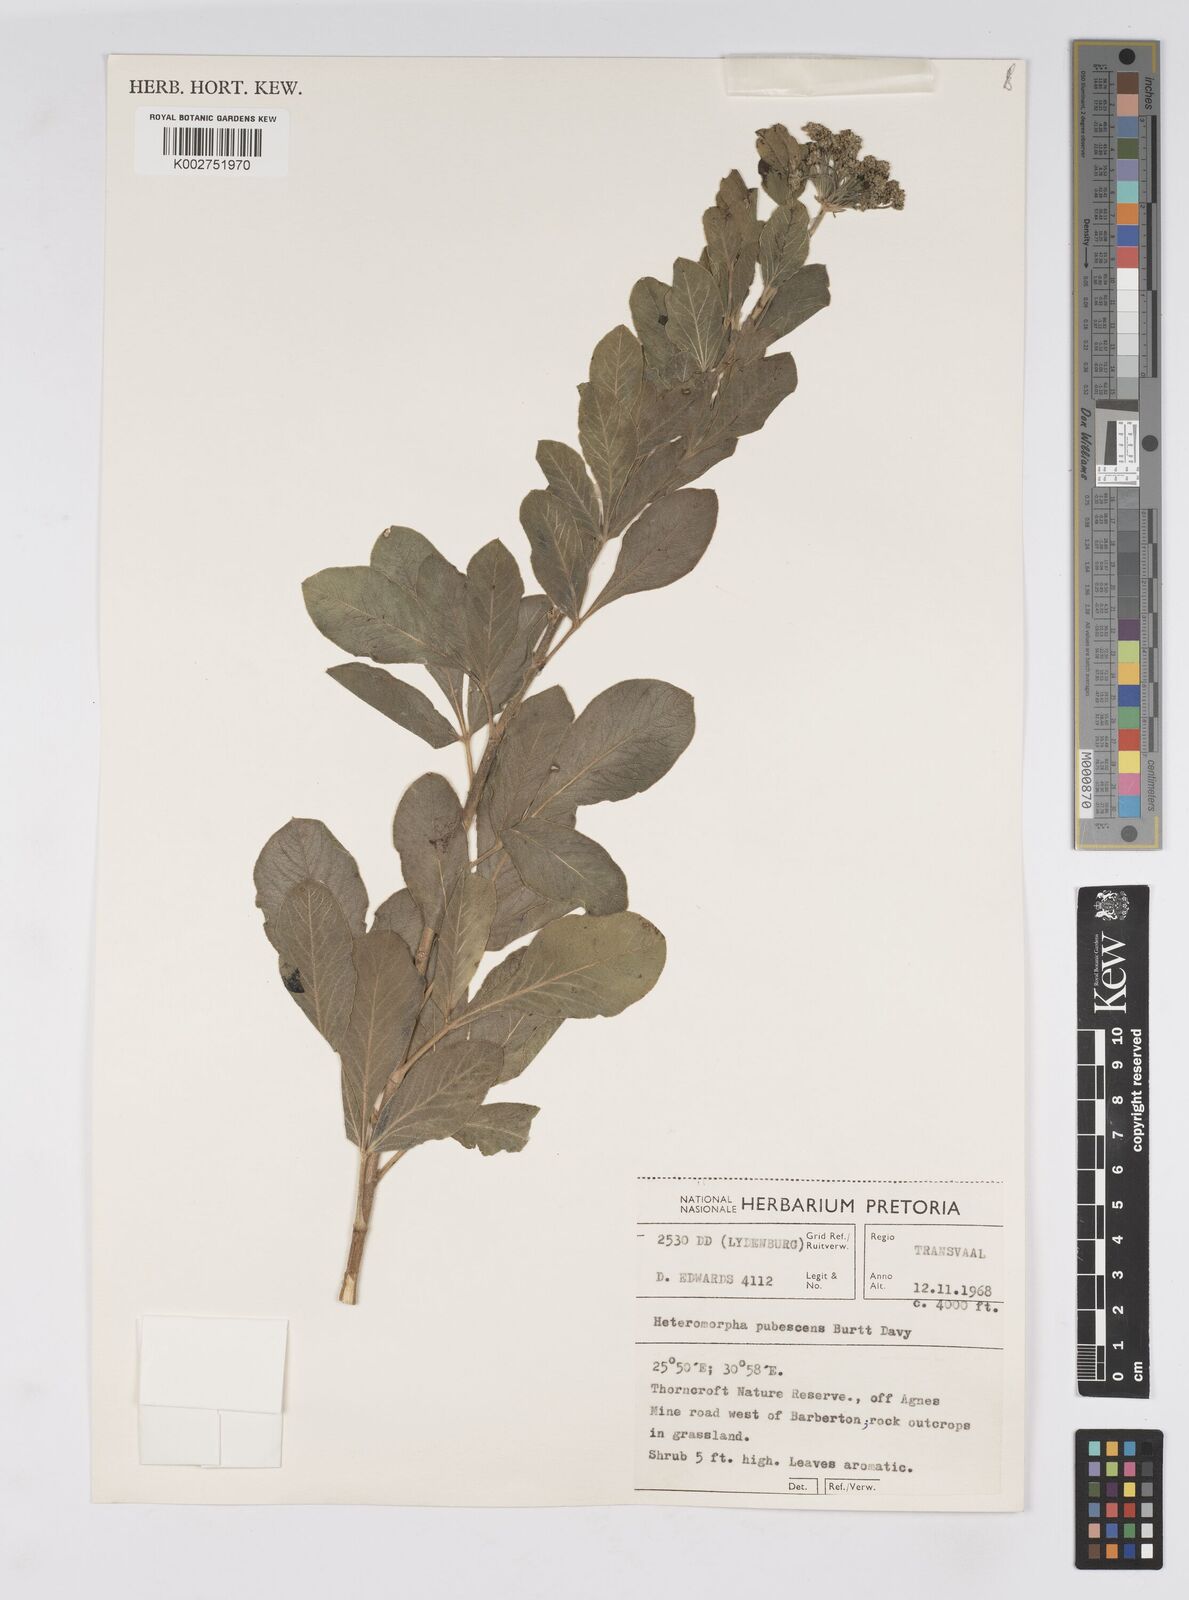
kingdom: Plantae
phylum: Tracheophyta
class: Magnoliopsida
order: Apiales
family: Apiaceae
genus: Heteromorpha
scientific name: Heteromorpha pubescens
